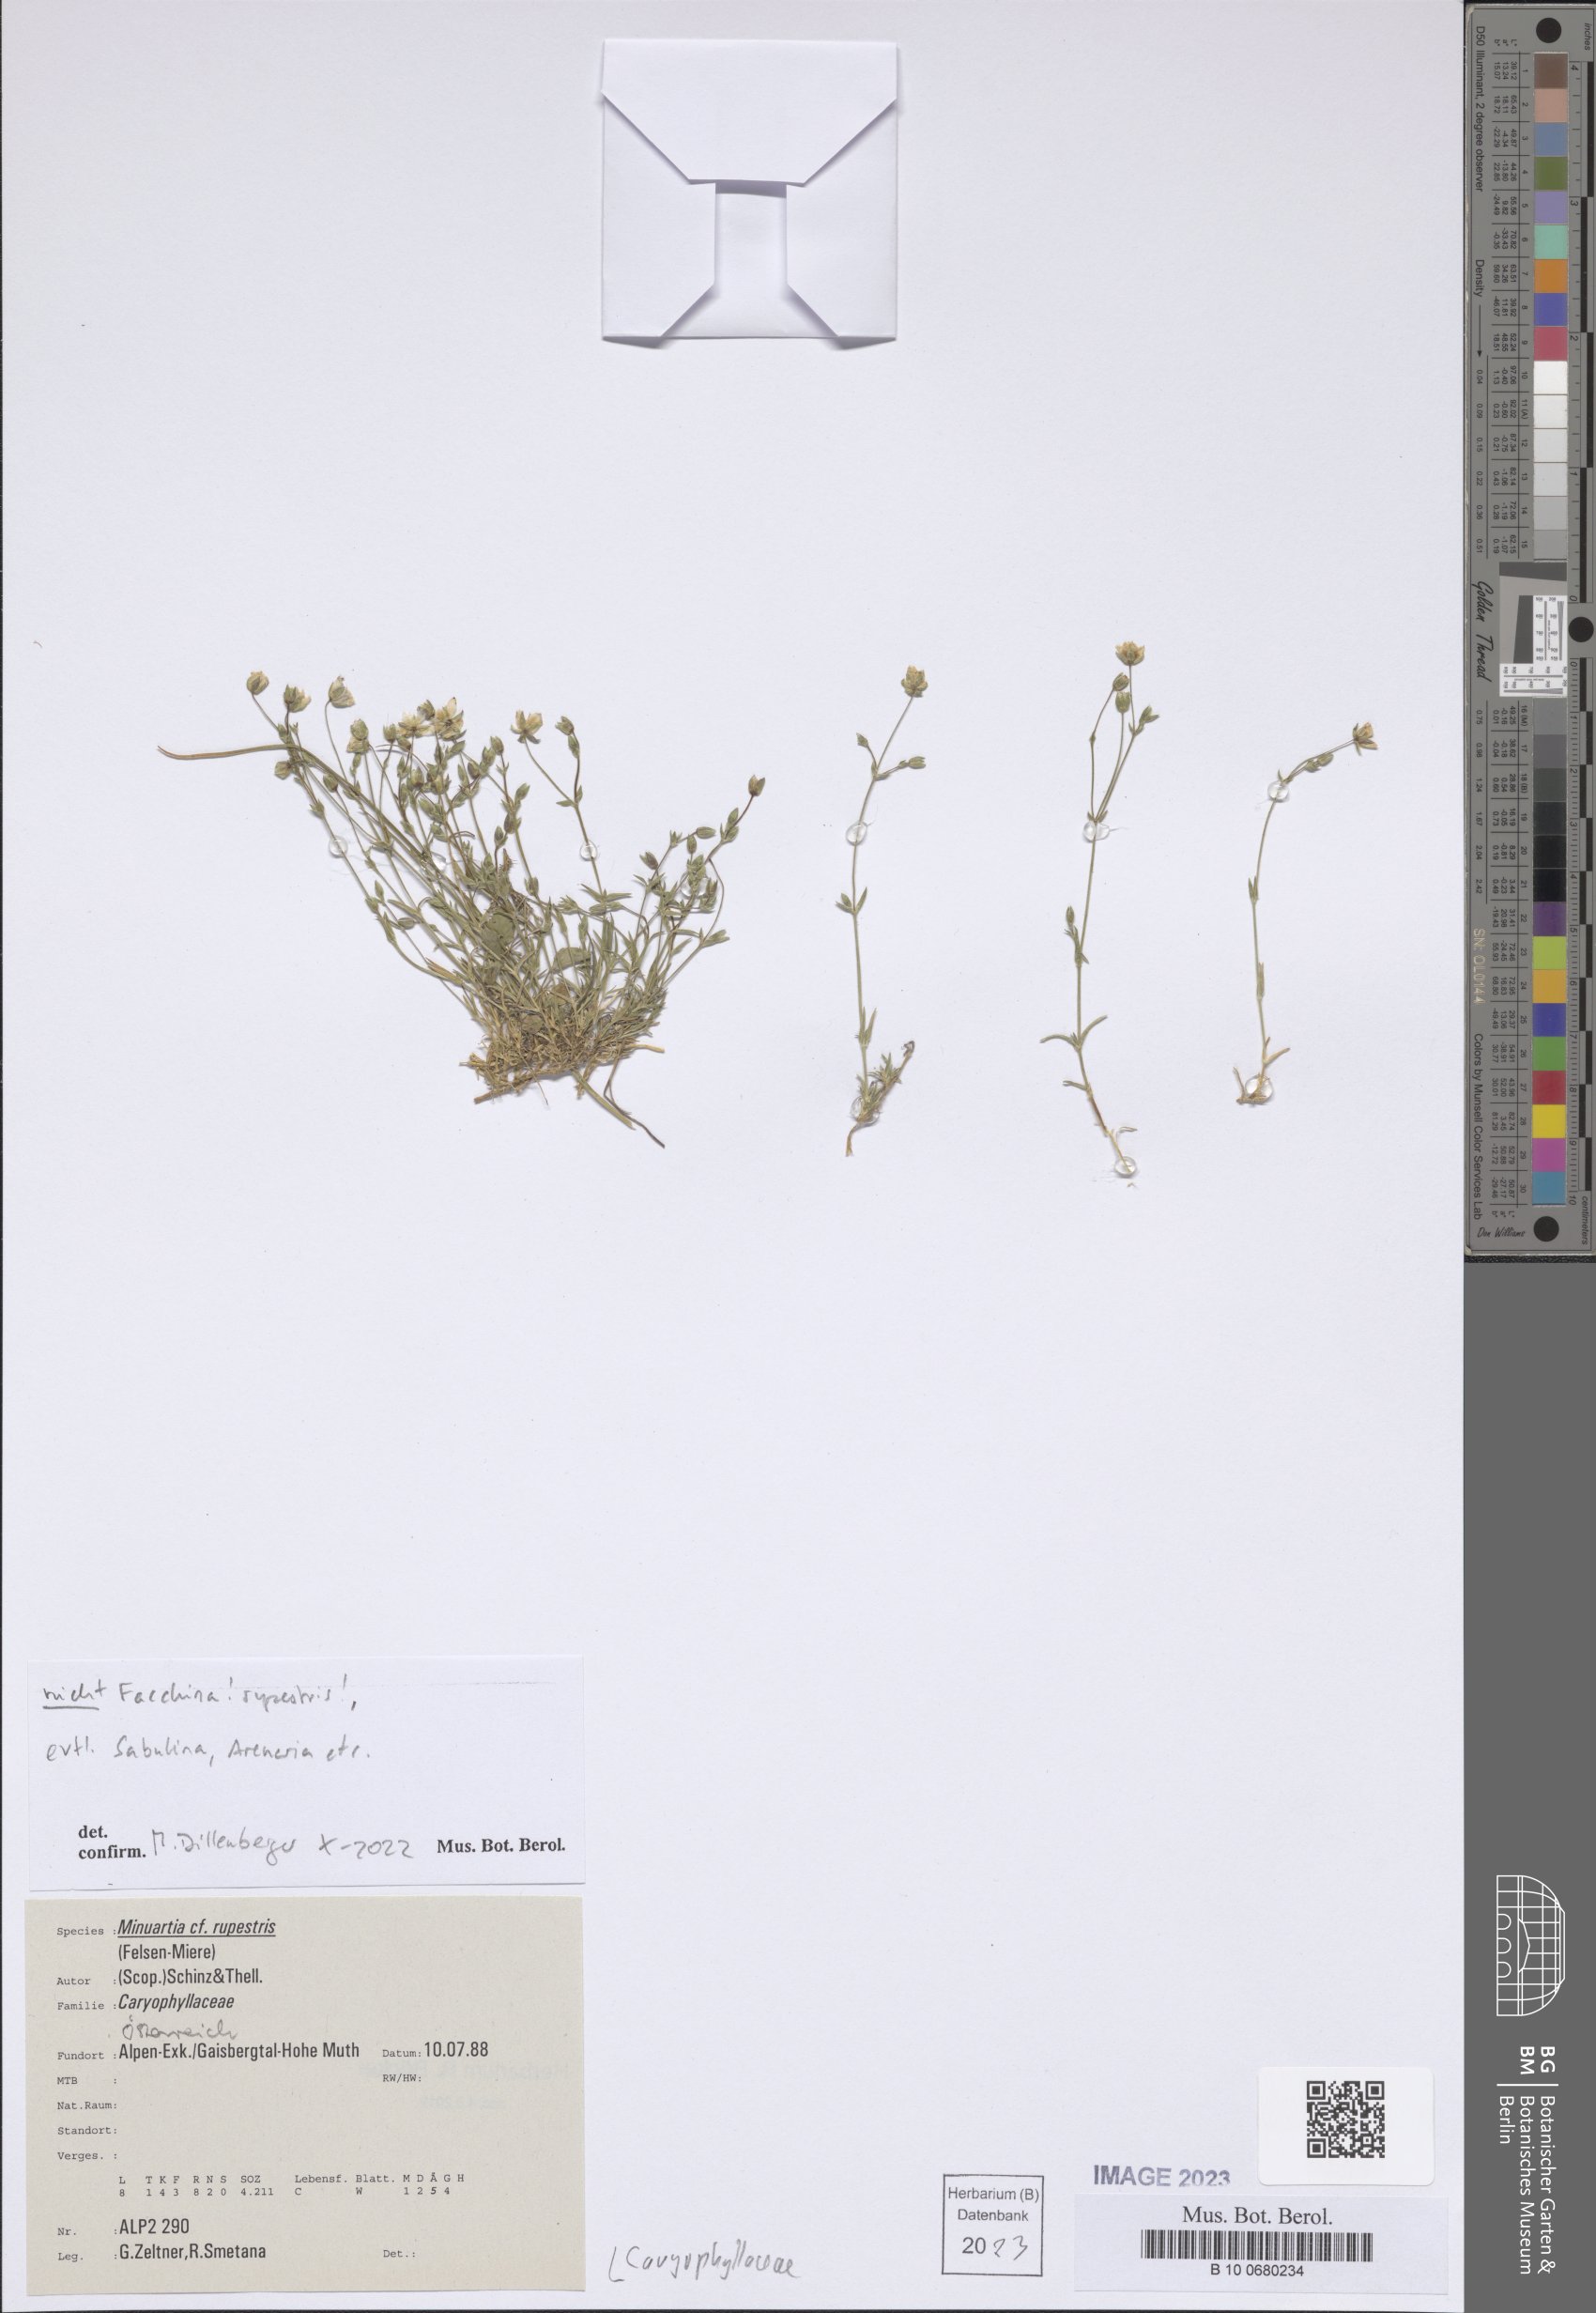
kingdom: Plantae
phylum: Tracheophyta
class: Magnoliopsida
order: Caryophyllales
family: Caryophyllaceae
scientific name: Caryophyllaceae
